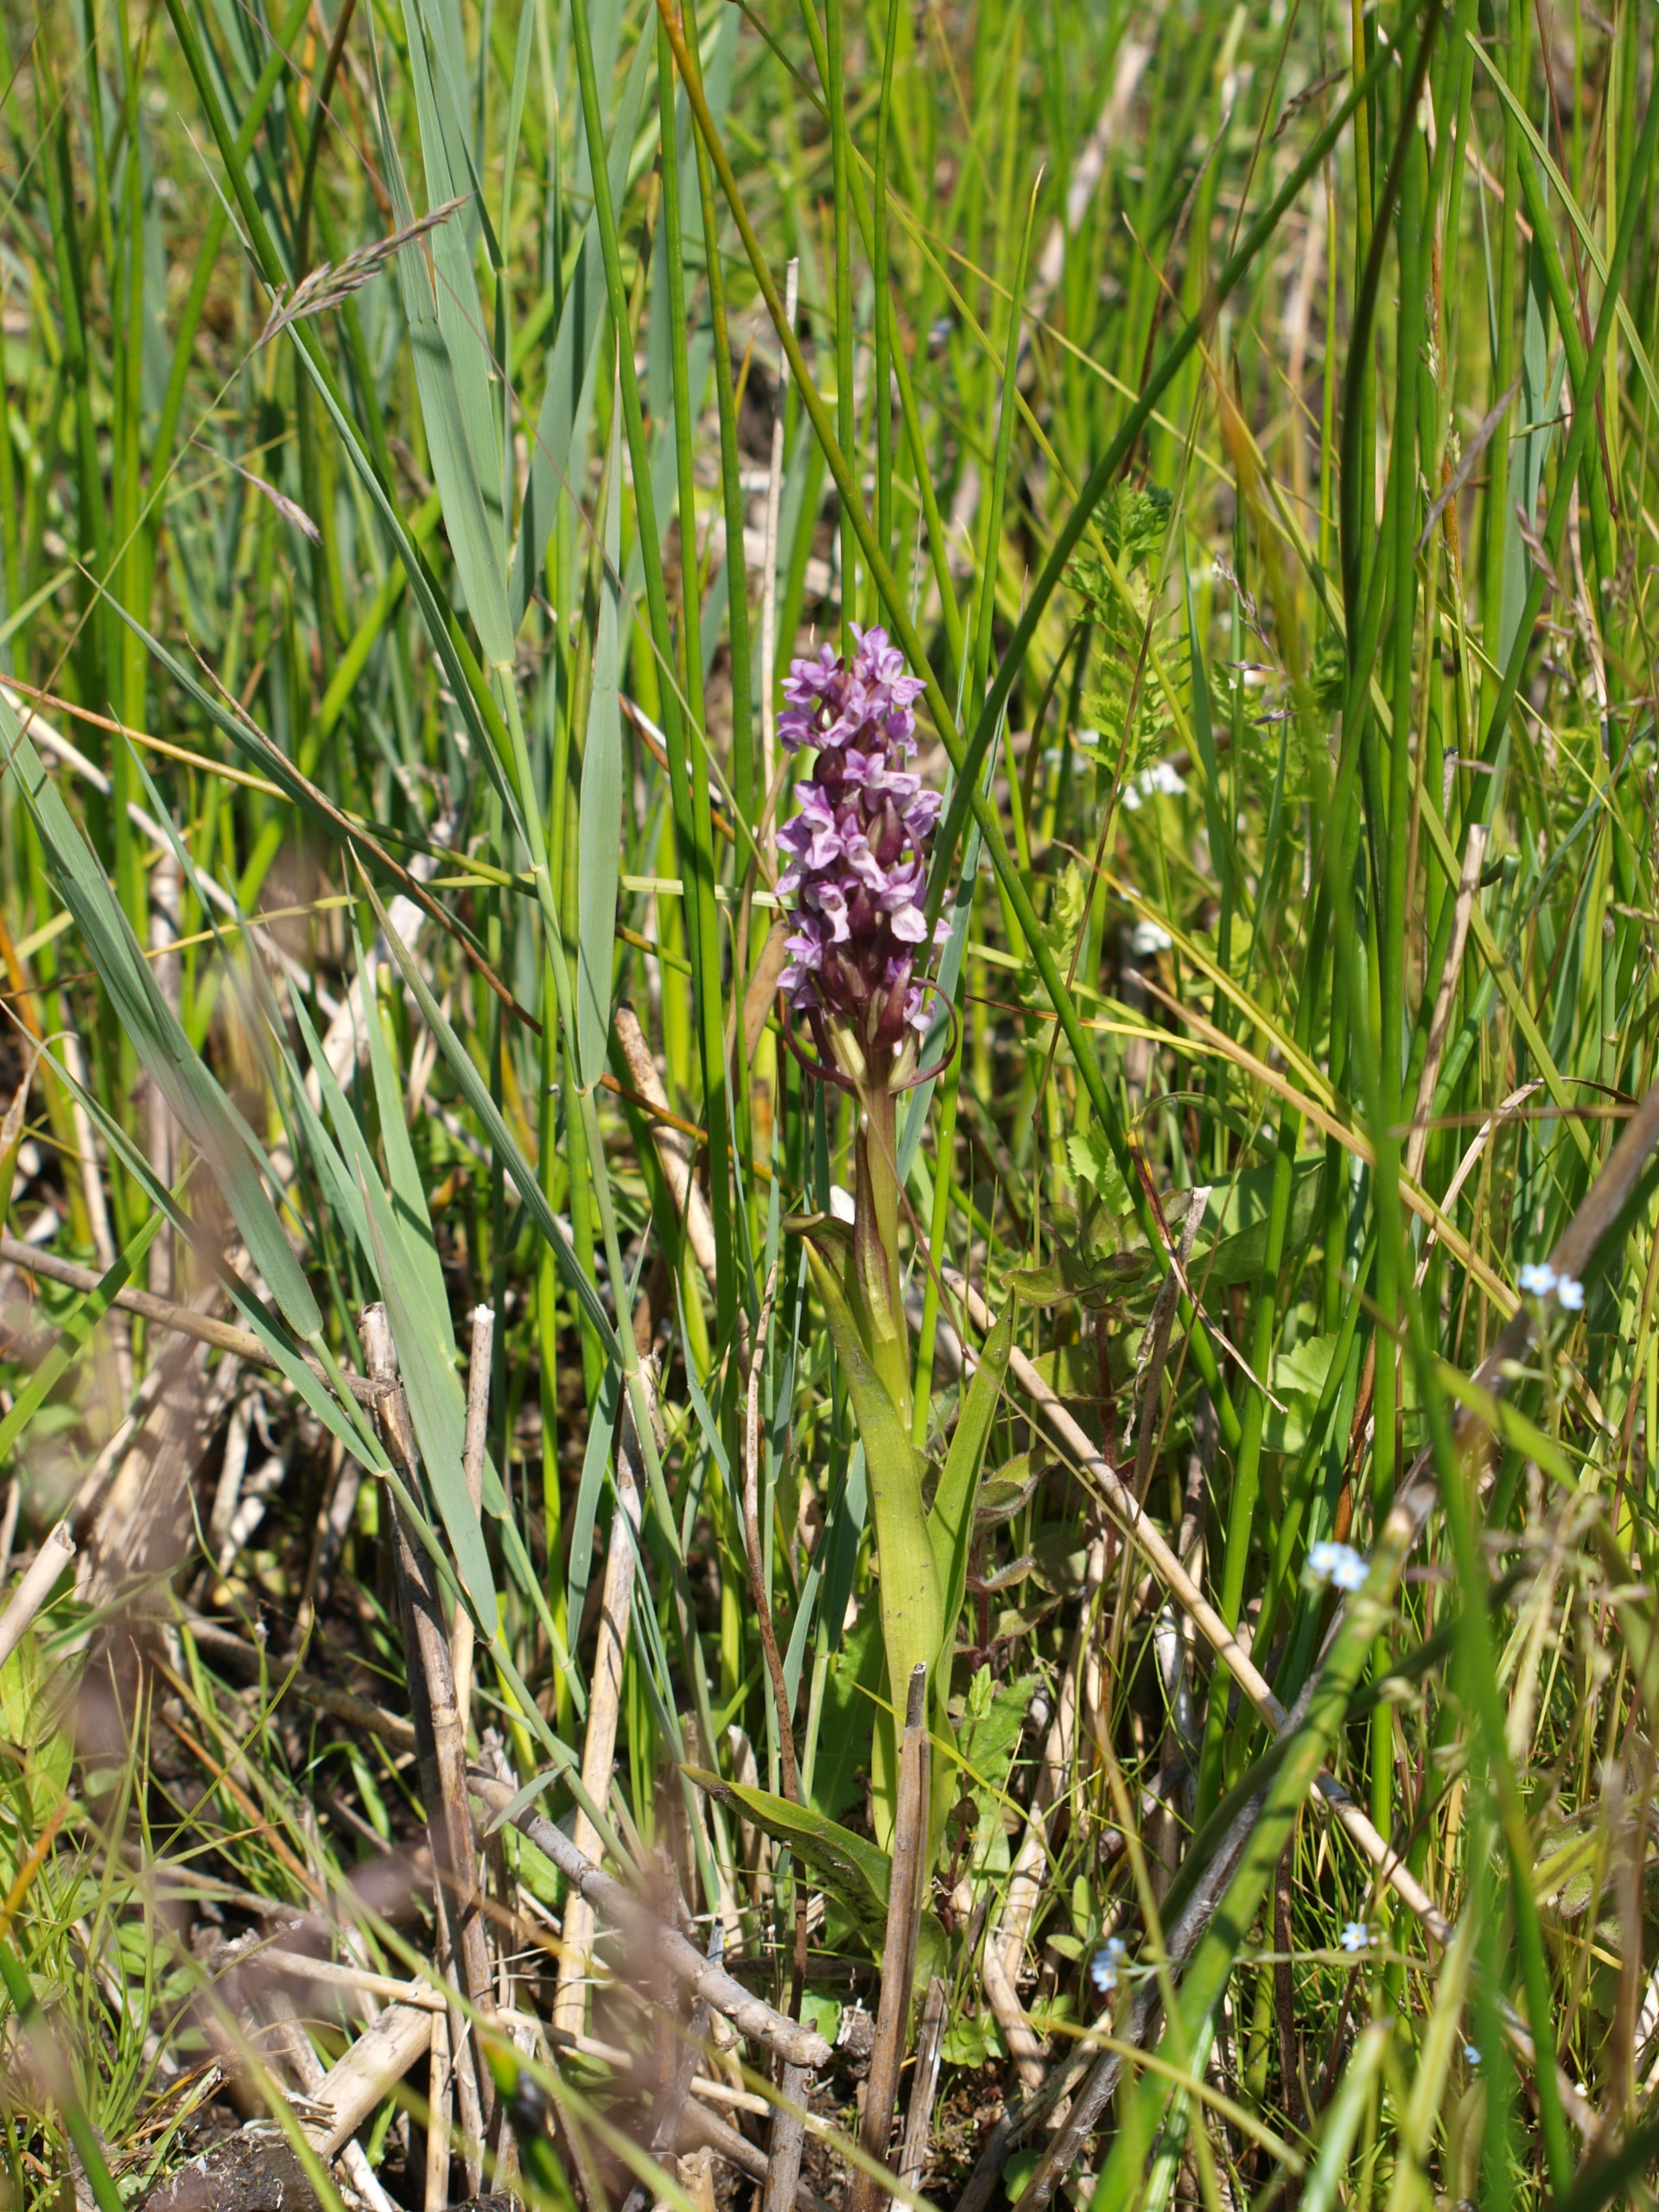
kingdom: Plantae
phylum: Tracheophyta
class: Liliopsida
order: Asparagales
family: Orchidaceae
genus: Dactylorhiza
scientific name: Dactylorhiza incarnata
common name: Kødfarvet gøgeurt
